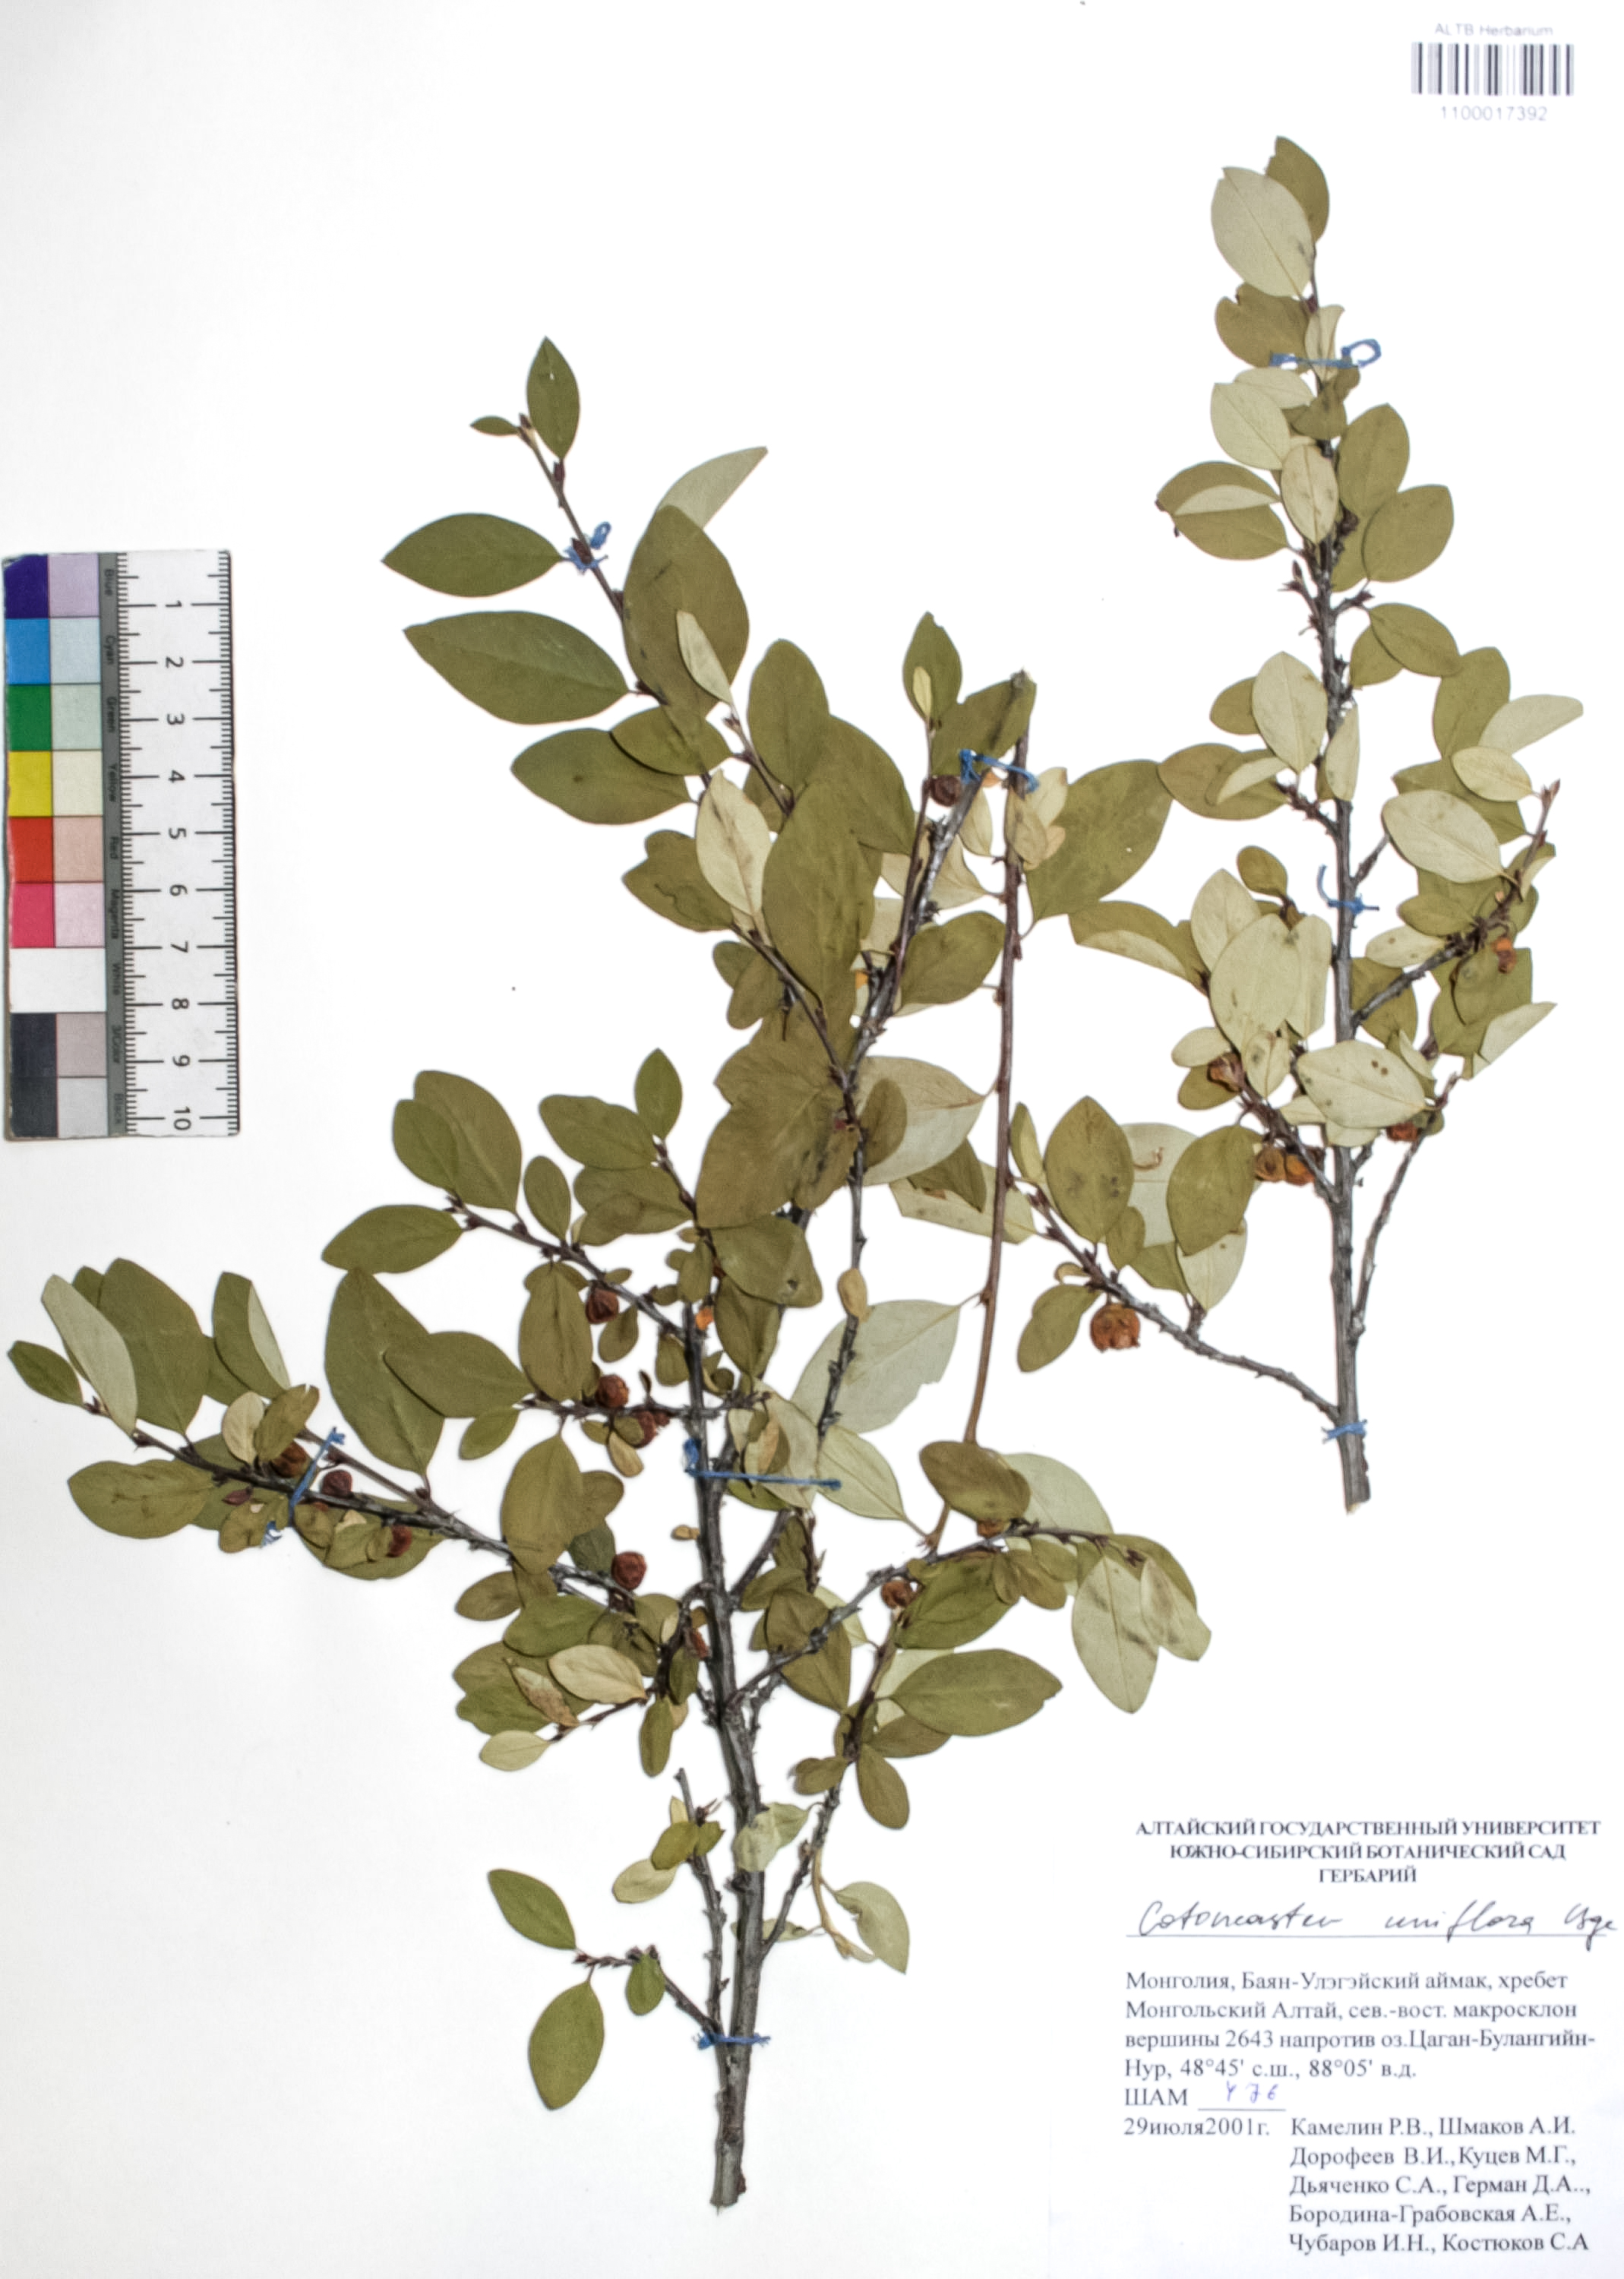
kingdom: Plantae
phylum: Tracheophyta
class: Magnoliopsida
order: Rosales
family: Rosaceae
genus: Cotoneaster
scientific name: Cotoneaster uniflorus
